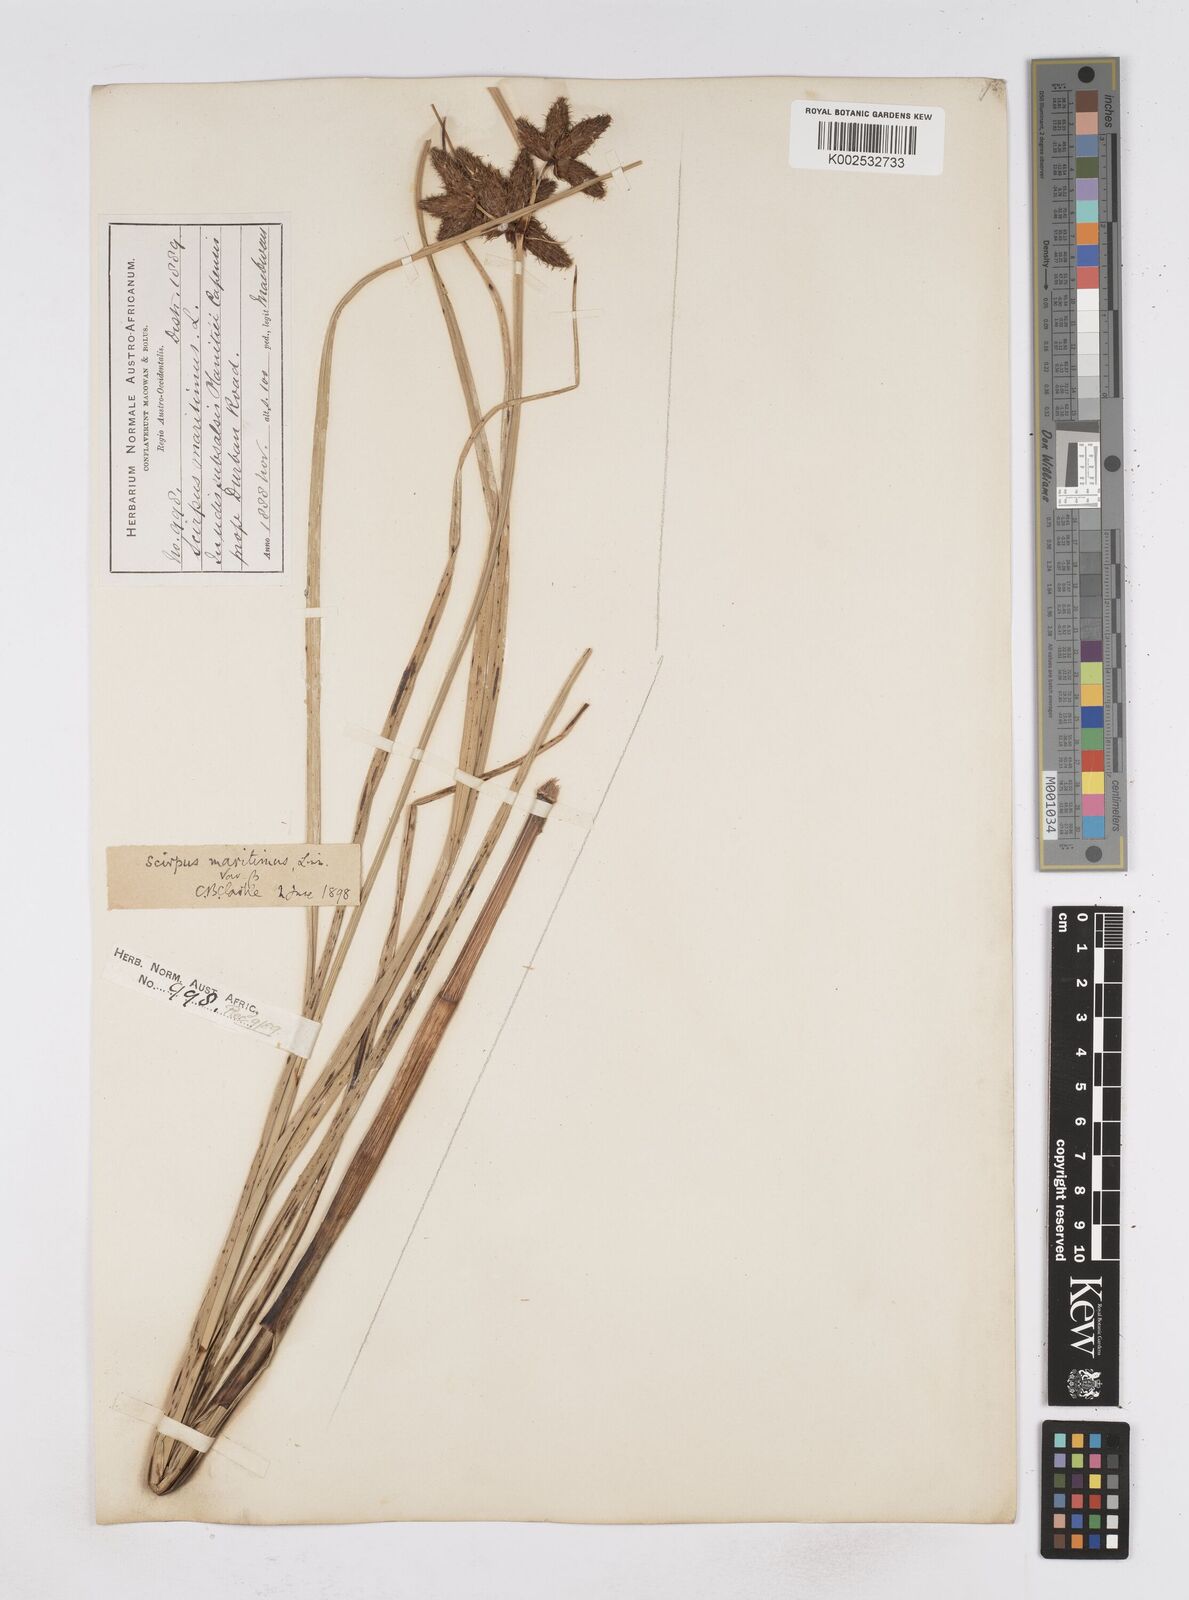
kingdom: Plantae
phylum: Tracheophyta
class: Liliopsida
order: Poales
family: Cyperaceae
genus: Bolboschoenus
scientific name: Bolboschoenus maritimus
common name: Sea club-rush
